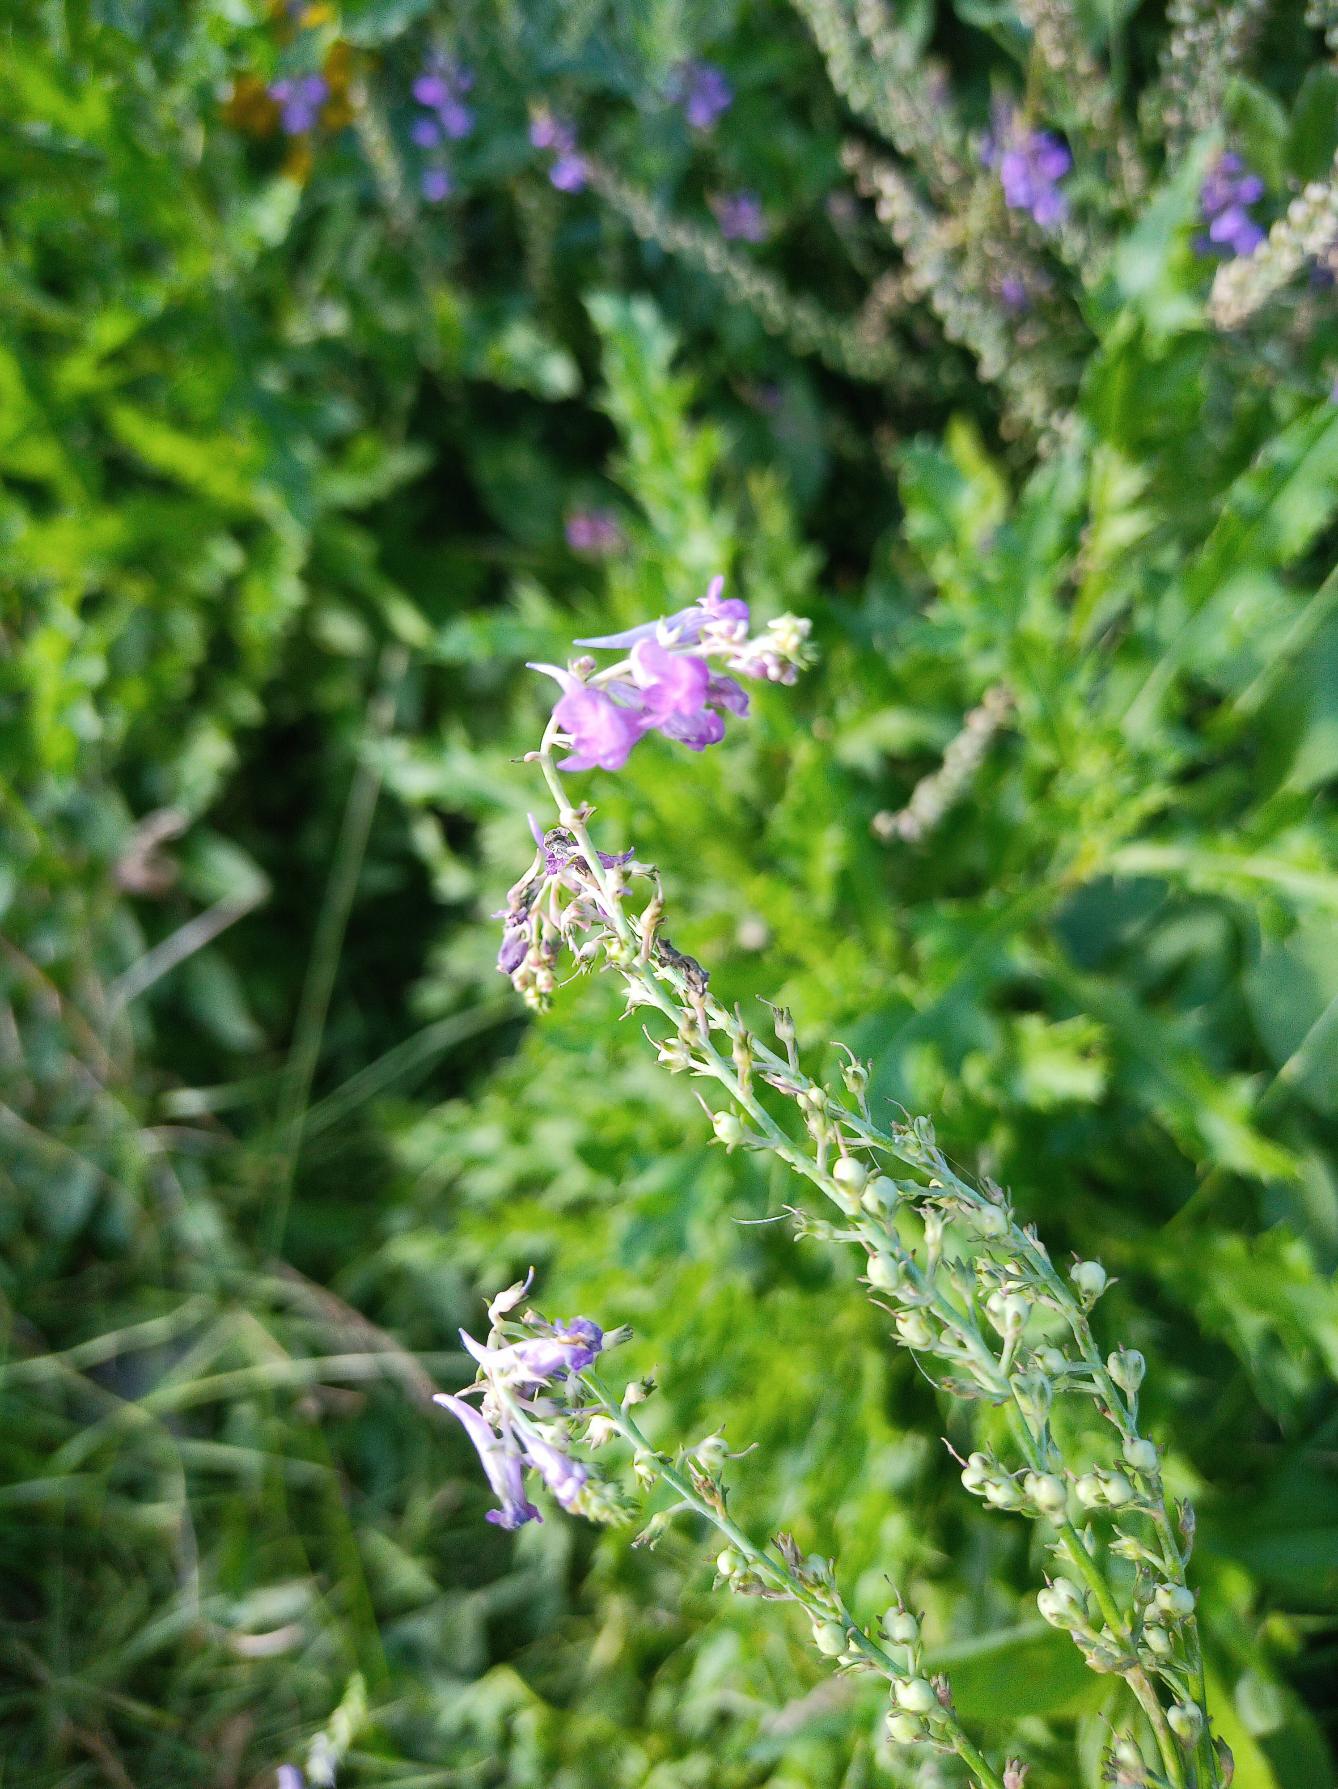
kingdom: Plantae
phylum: Tracheophyta
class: Magnoliopsida
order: Lamiales
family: Plantaginaceae
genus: Linaria
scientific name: Linaria purpurea
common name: Purpur-torskemund
